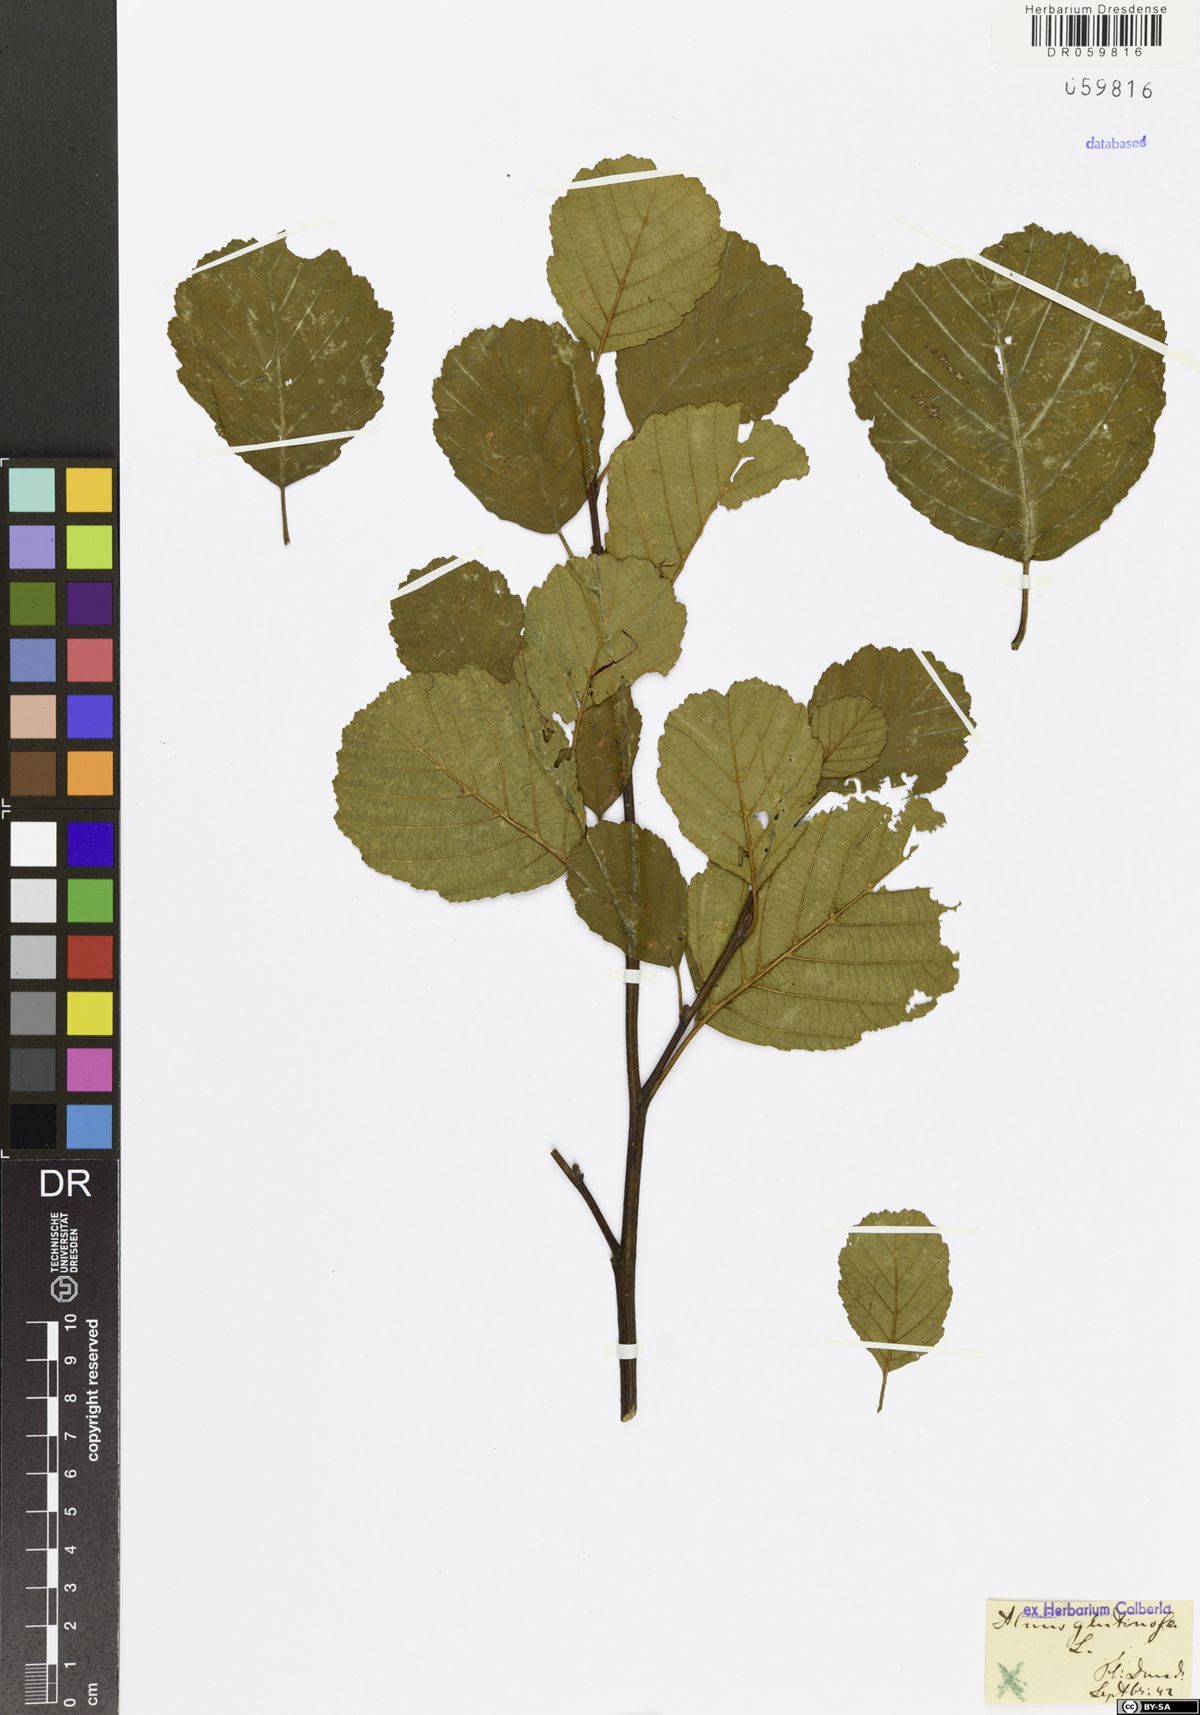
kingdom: Plantae
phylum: Tracheophyta
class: Magnoliopsida
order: Fagales
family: Betulaceae
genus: Alnus
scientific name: Alnus glutinosa
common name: Black alder
